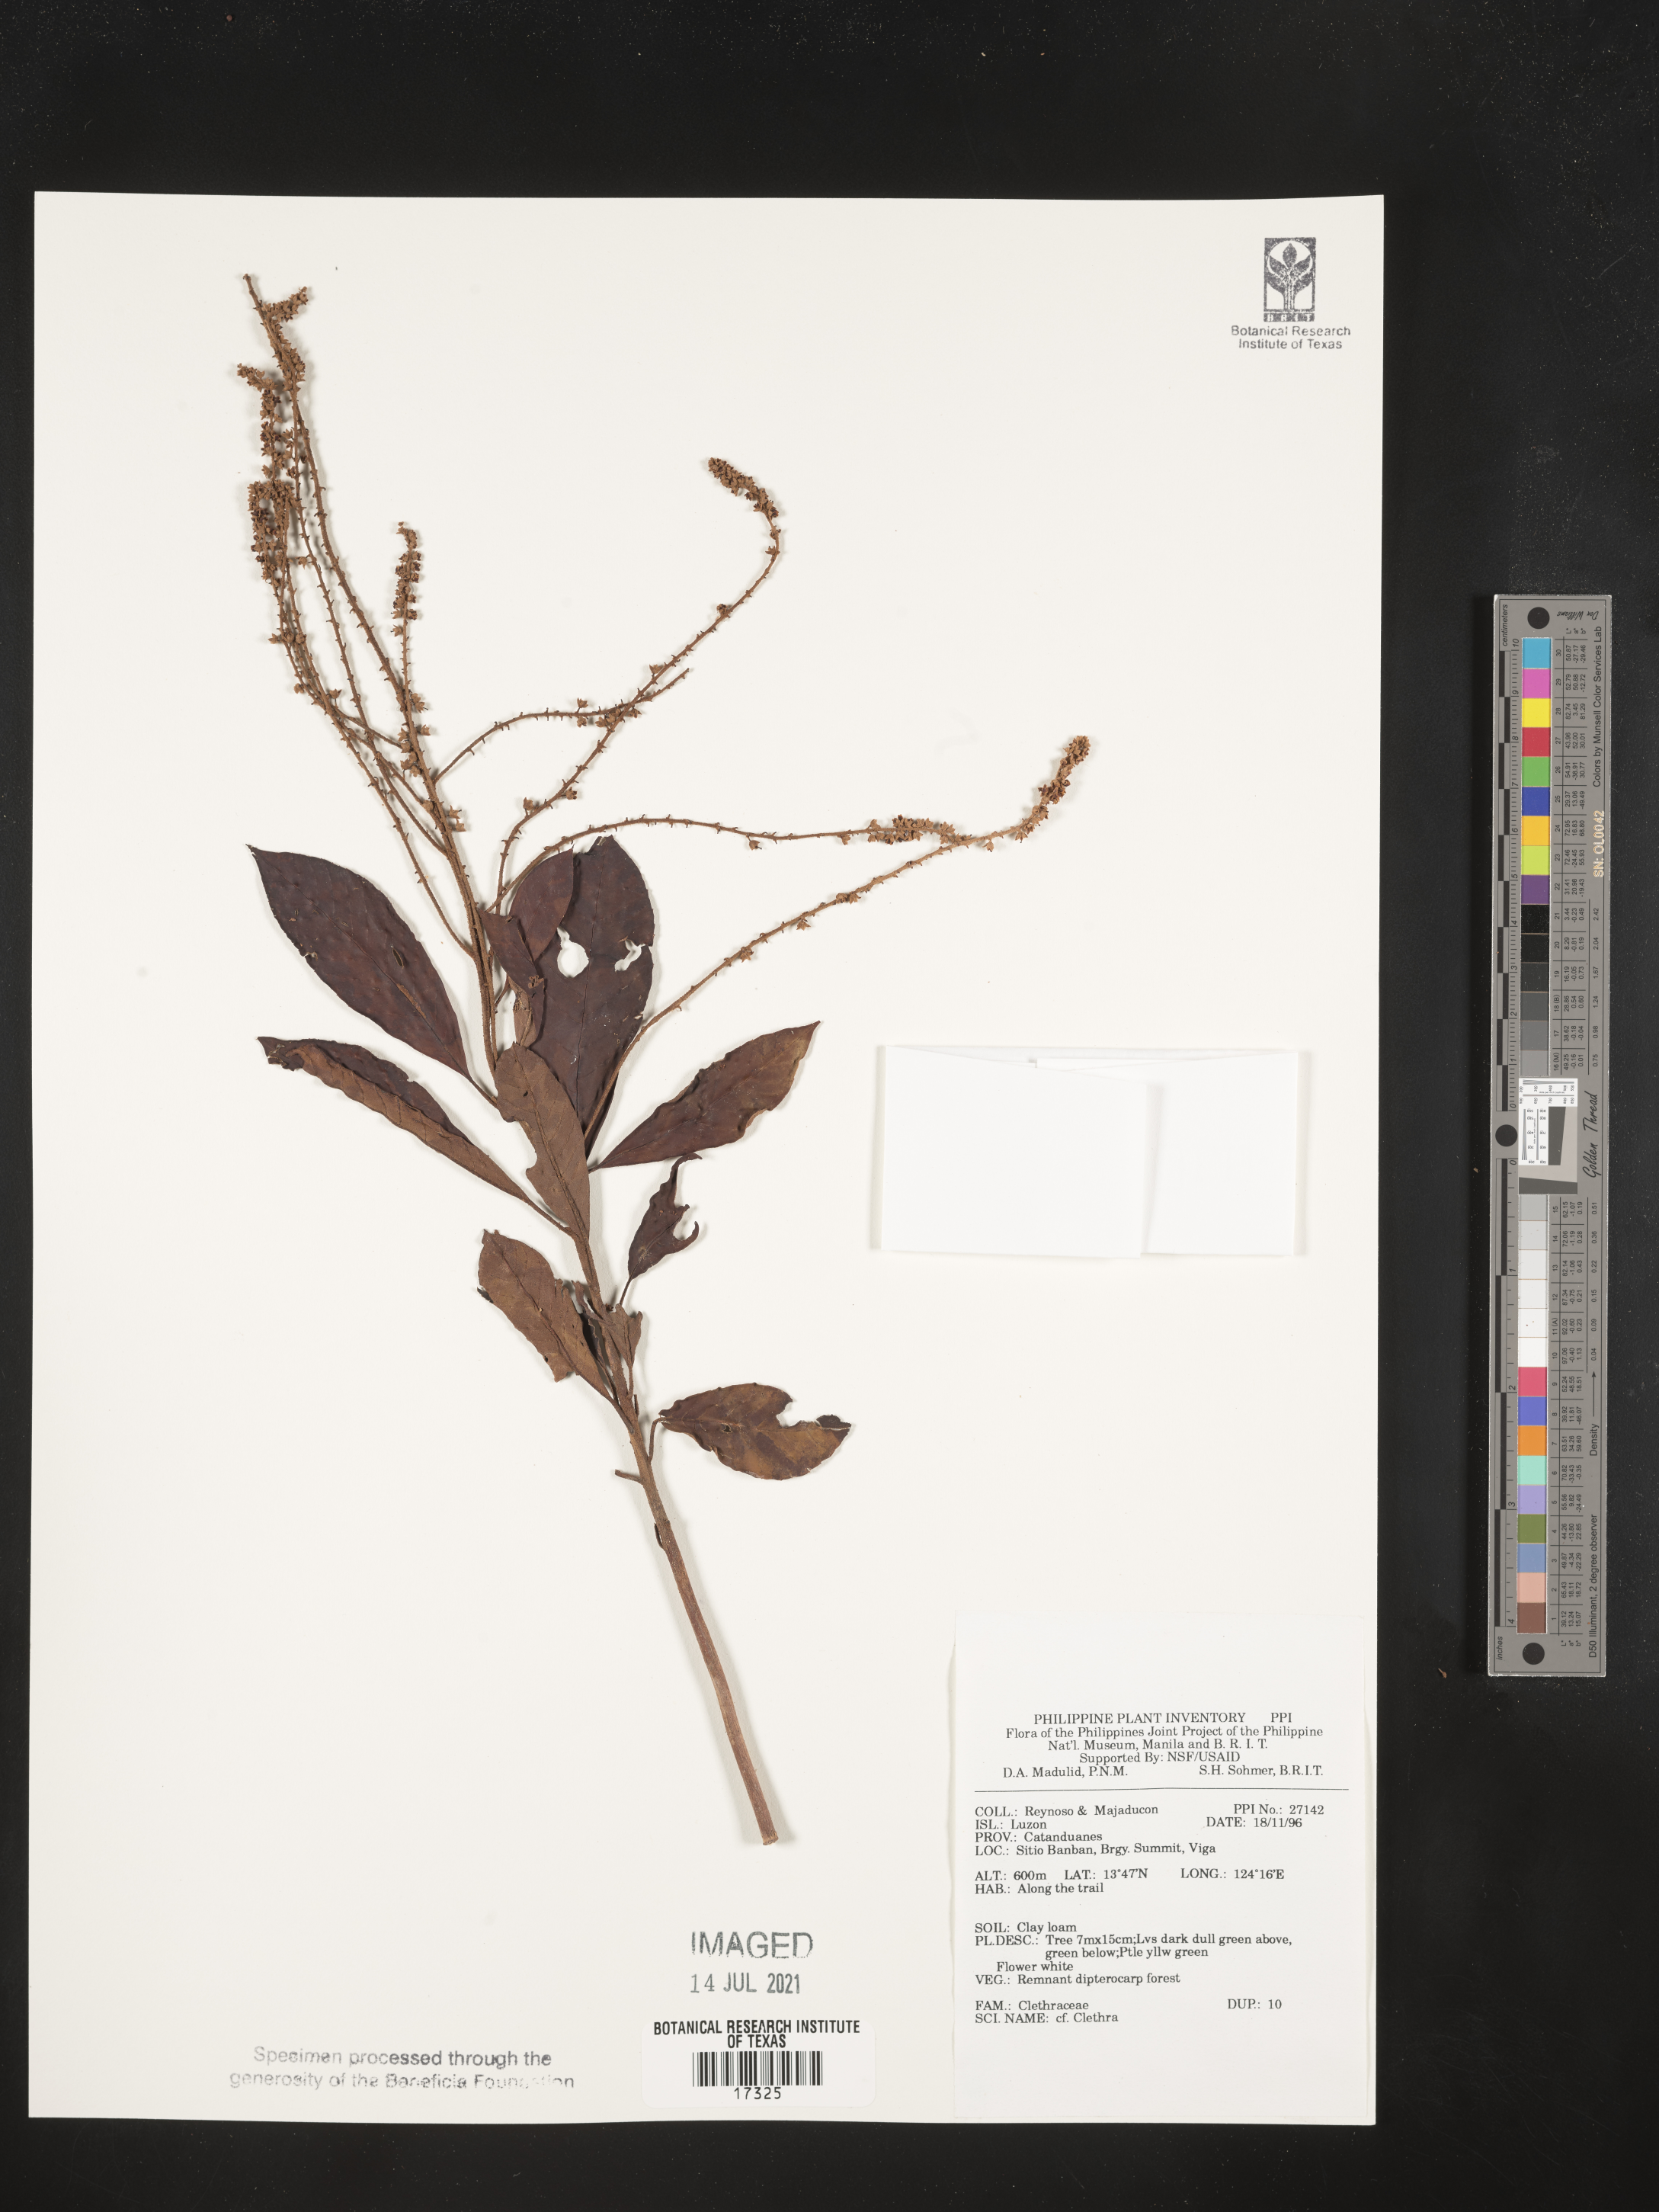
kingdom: Plantae
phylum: Tracheophyta
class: Magnoliopsida
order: Ericales
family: Clethraceae
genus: Clethra
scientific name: Clethra
